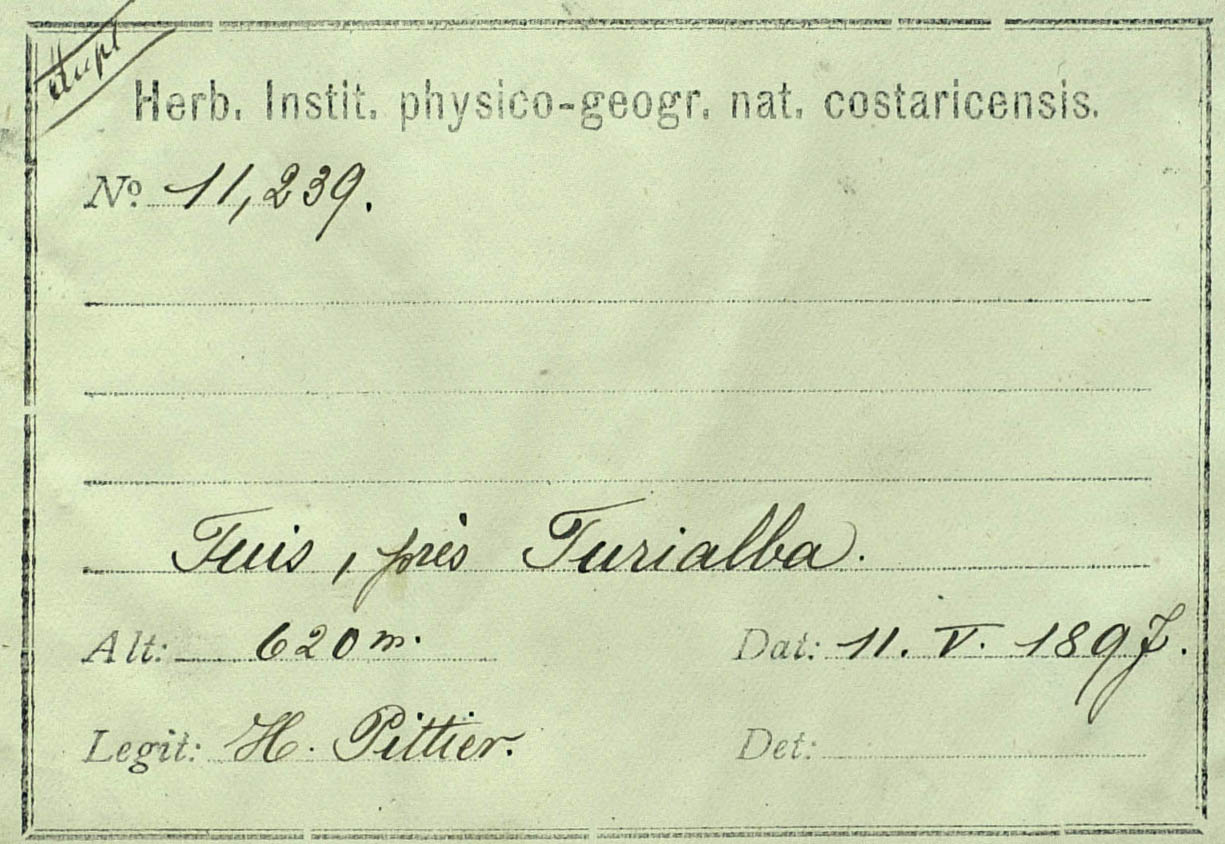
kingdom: Plantae
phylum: Tracheophyta
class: Magnoliopsida
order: Asterales
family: Asteraceae
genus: Cirsium
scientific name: Cirsium mexicanum
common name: Mexican thistle
